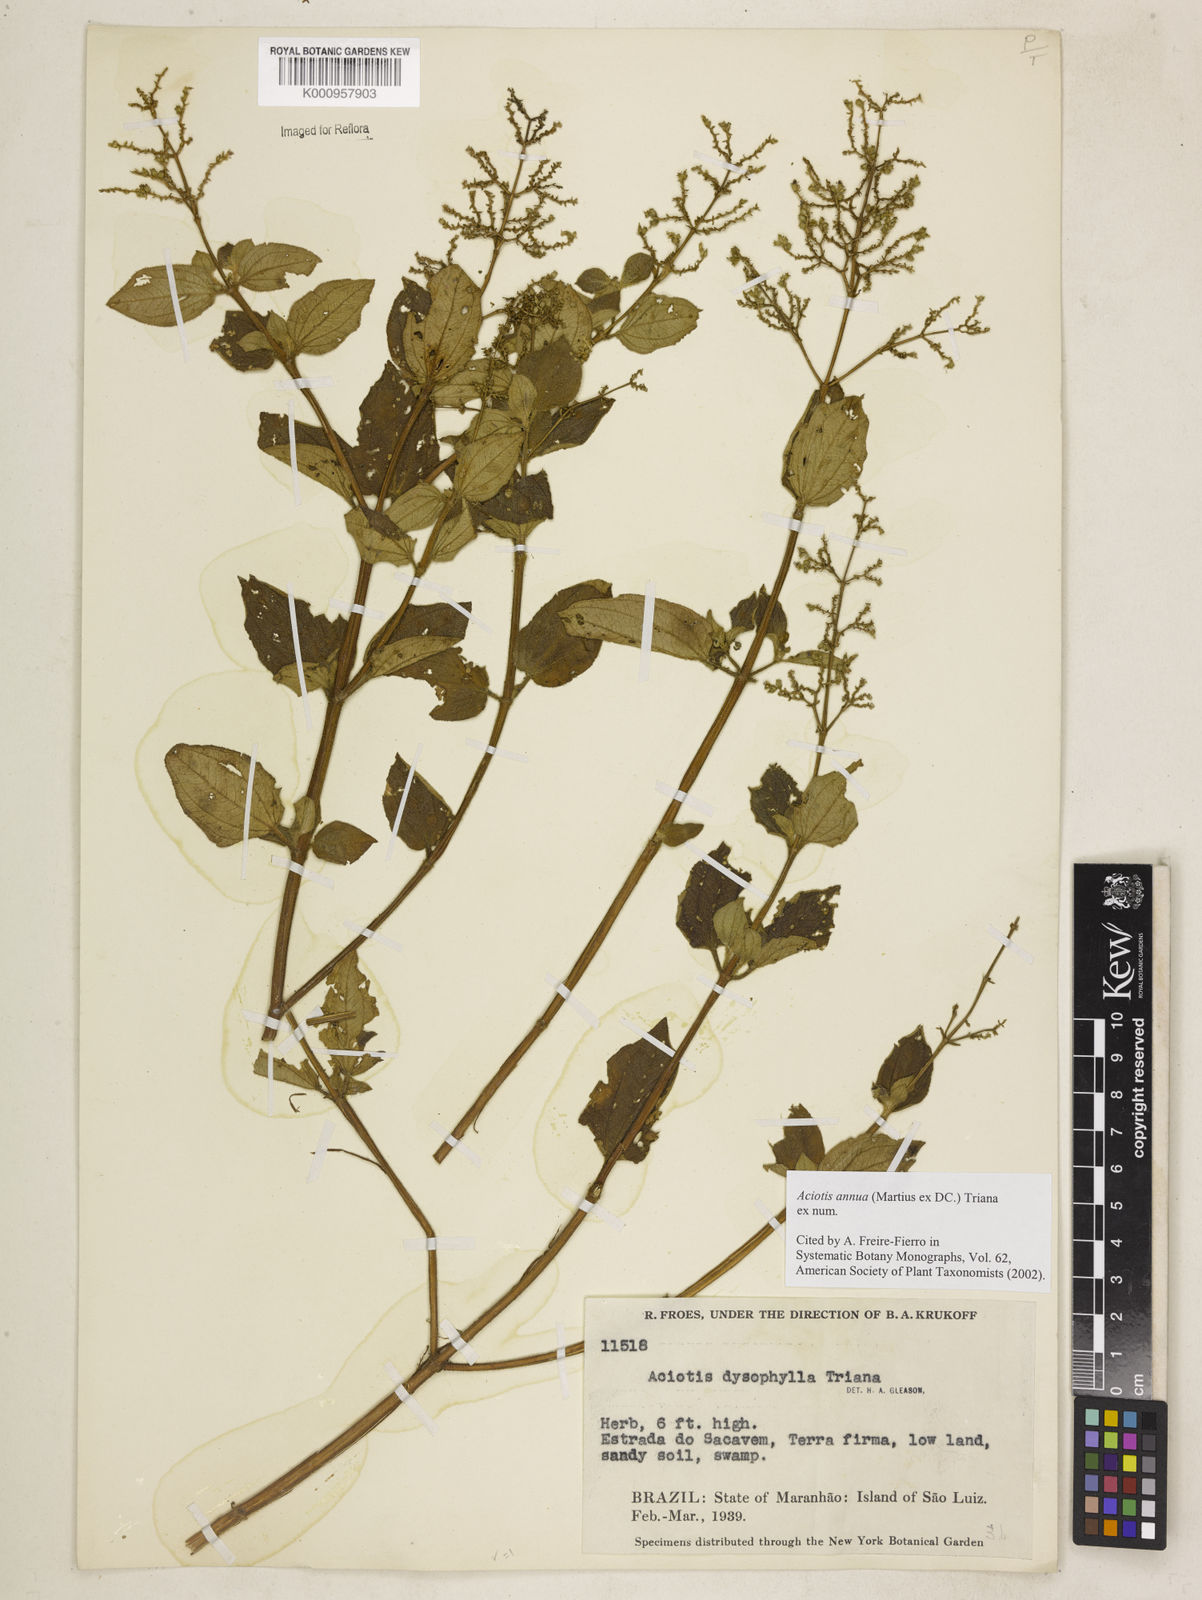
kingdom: Plantae
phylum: Tracheophyta
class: Magnoliopsida
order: Myrtales
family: Melastomataceae
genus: Aciotis
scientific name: Aciotis annua
